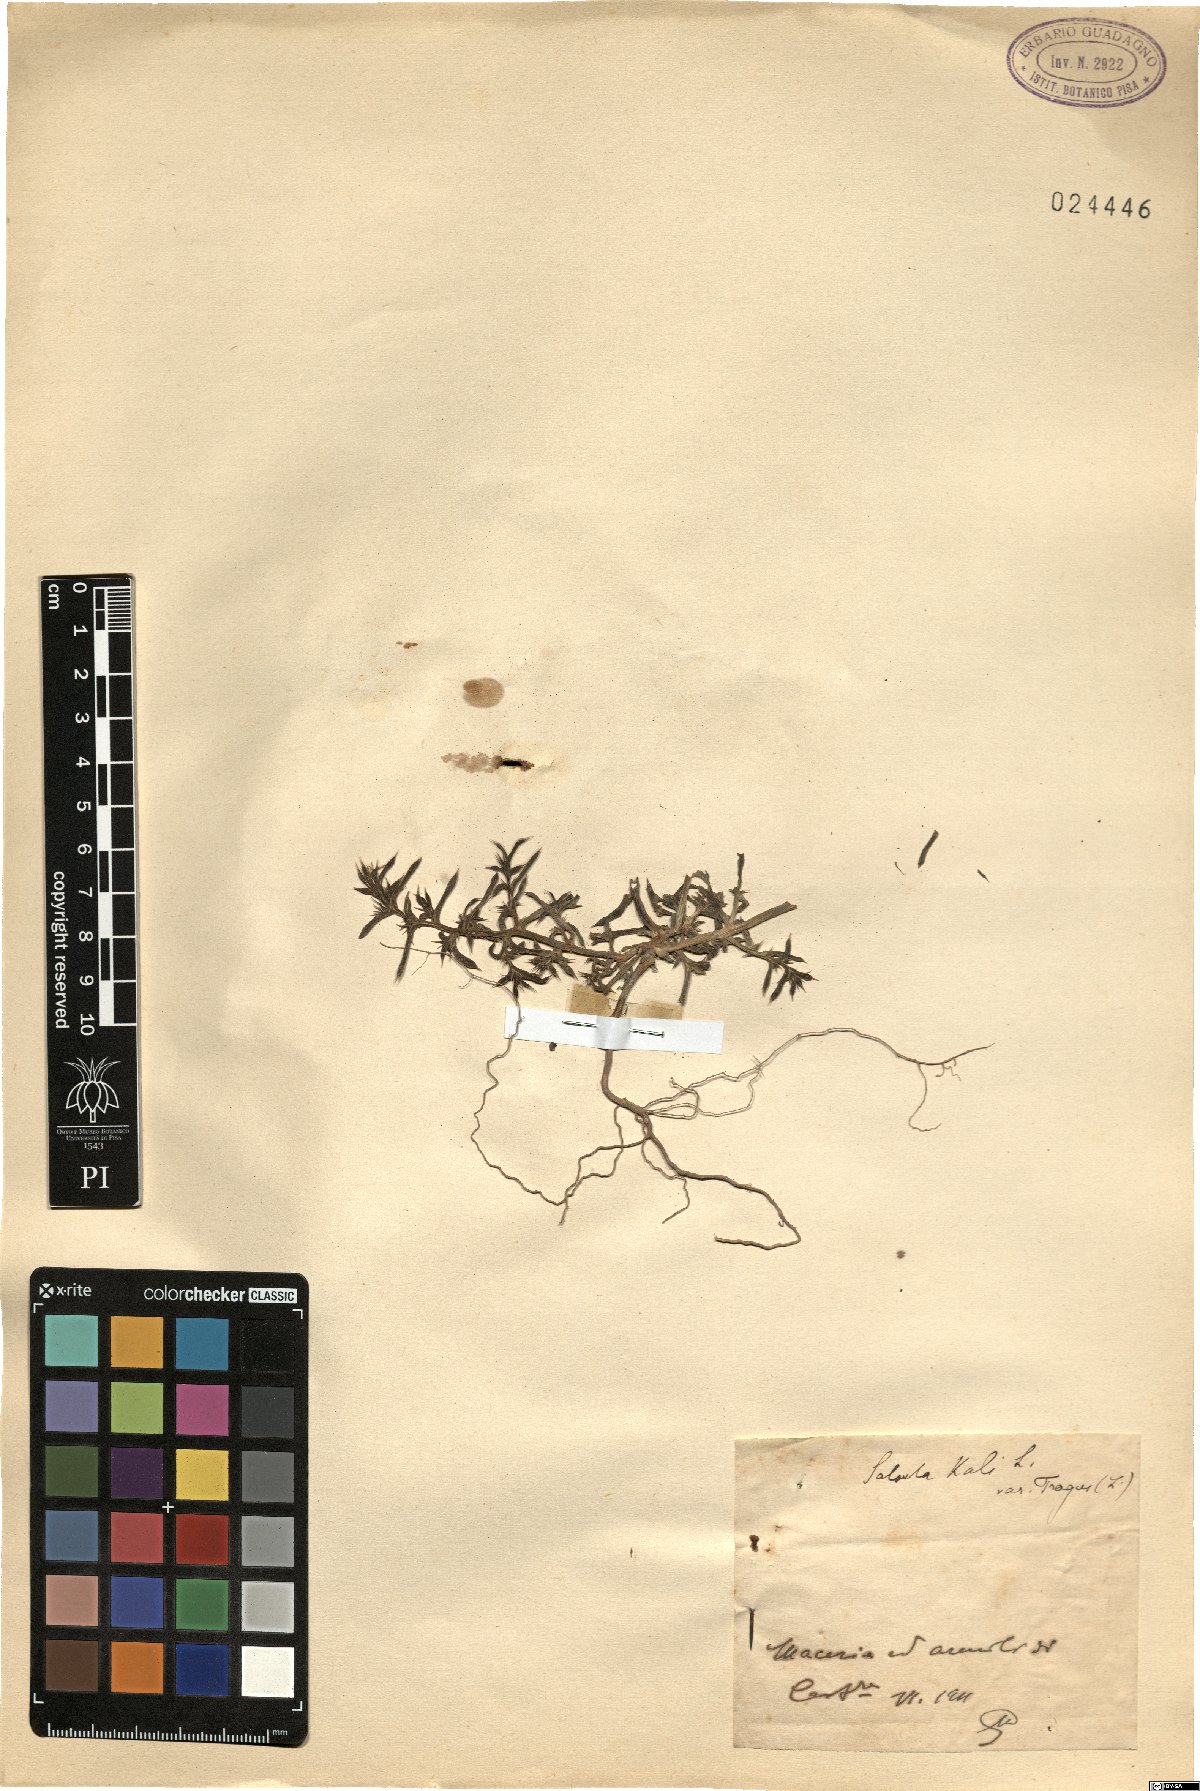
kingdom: Plantae
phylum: Tracheophyta
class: Magnoliopsida
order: Caryophyllales
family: Amaranthaceae
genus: Salsola
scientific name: Salsola tragus
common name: Prickly russian thistle
